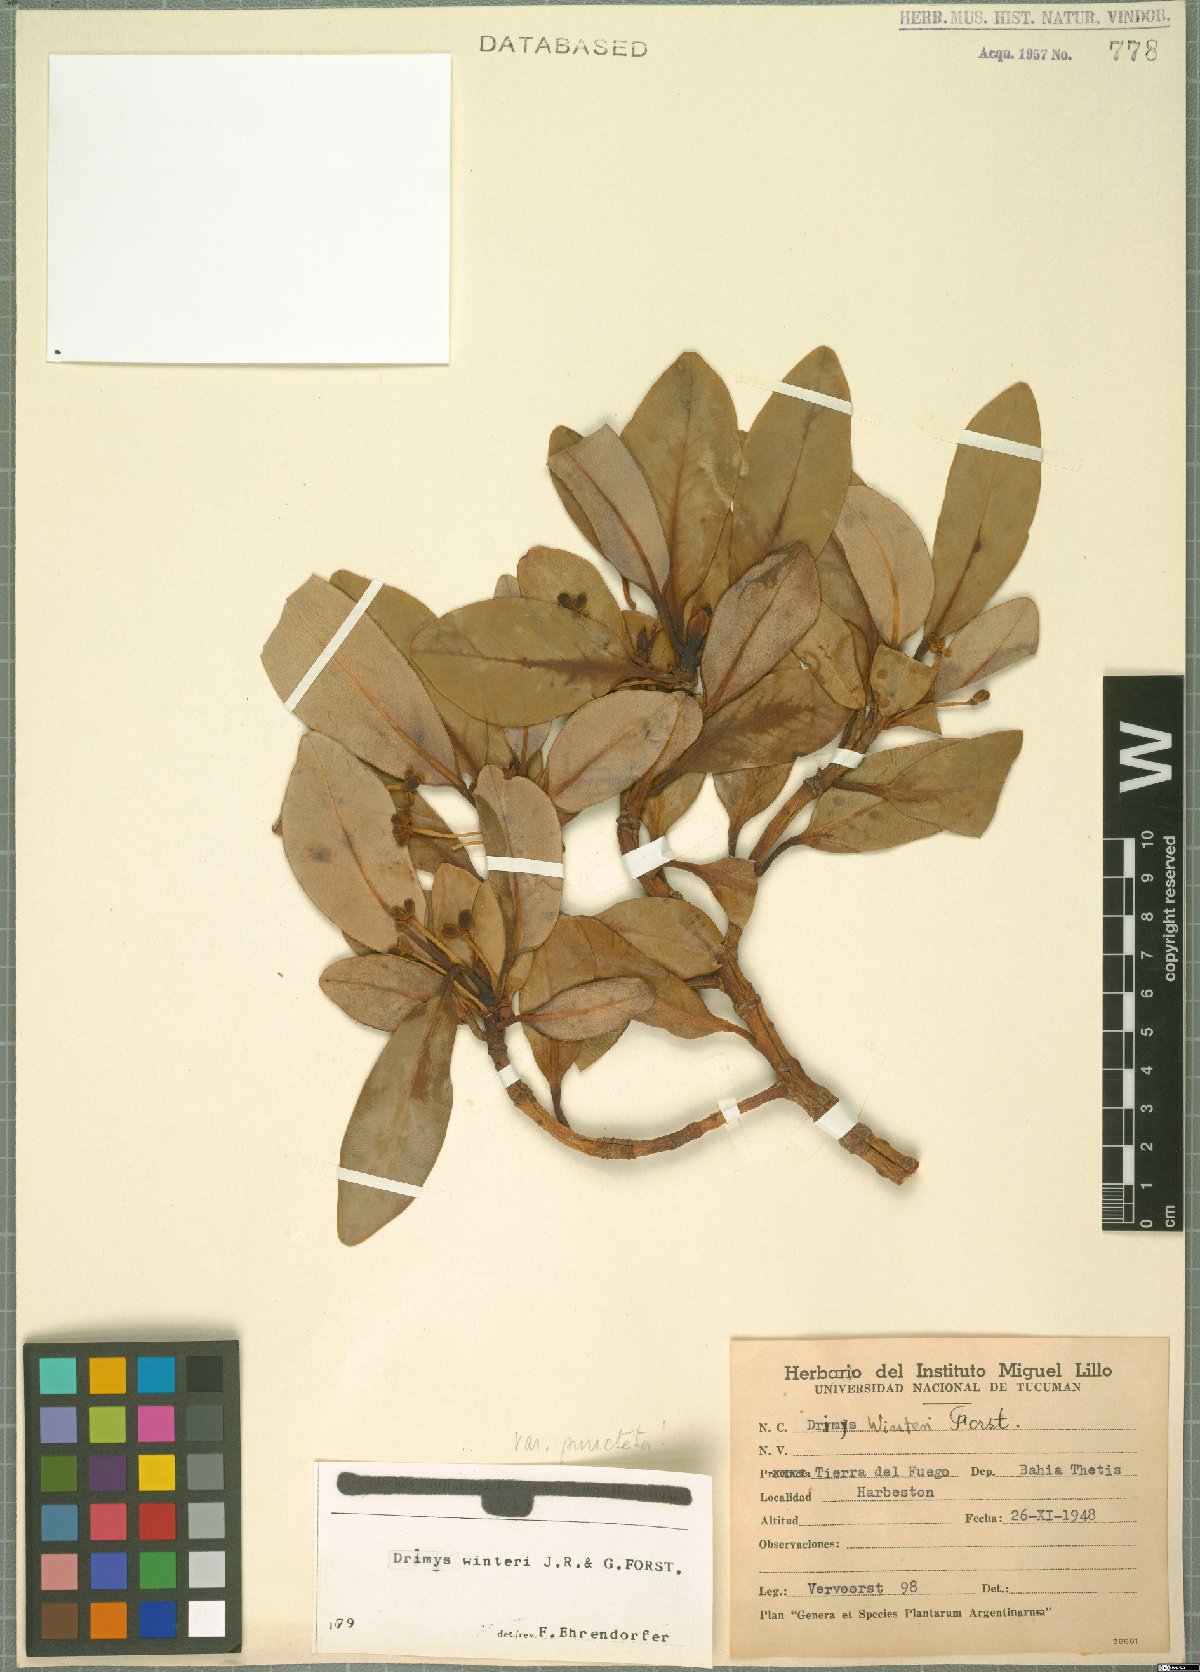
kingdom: Plantae
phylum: Tracheophyta
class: Magnoliopsida
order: Canellales
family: Winteraceae
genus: Drimys
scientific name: Drimys winteri
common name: Winter's-bark
